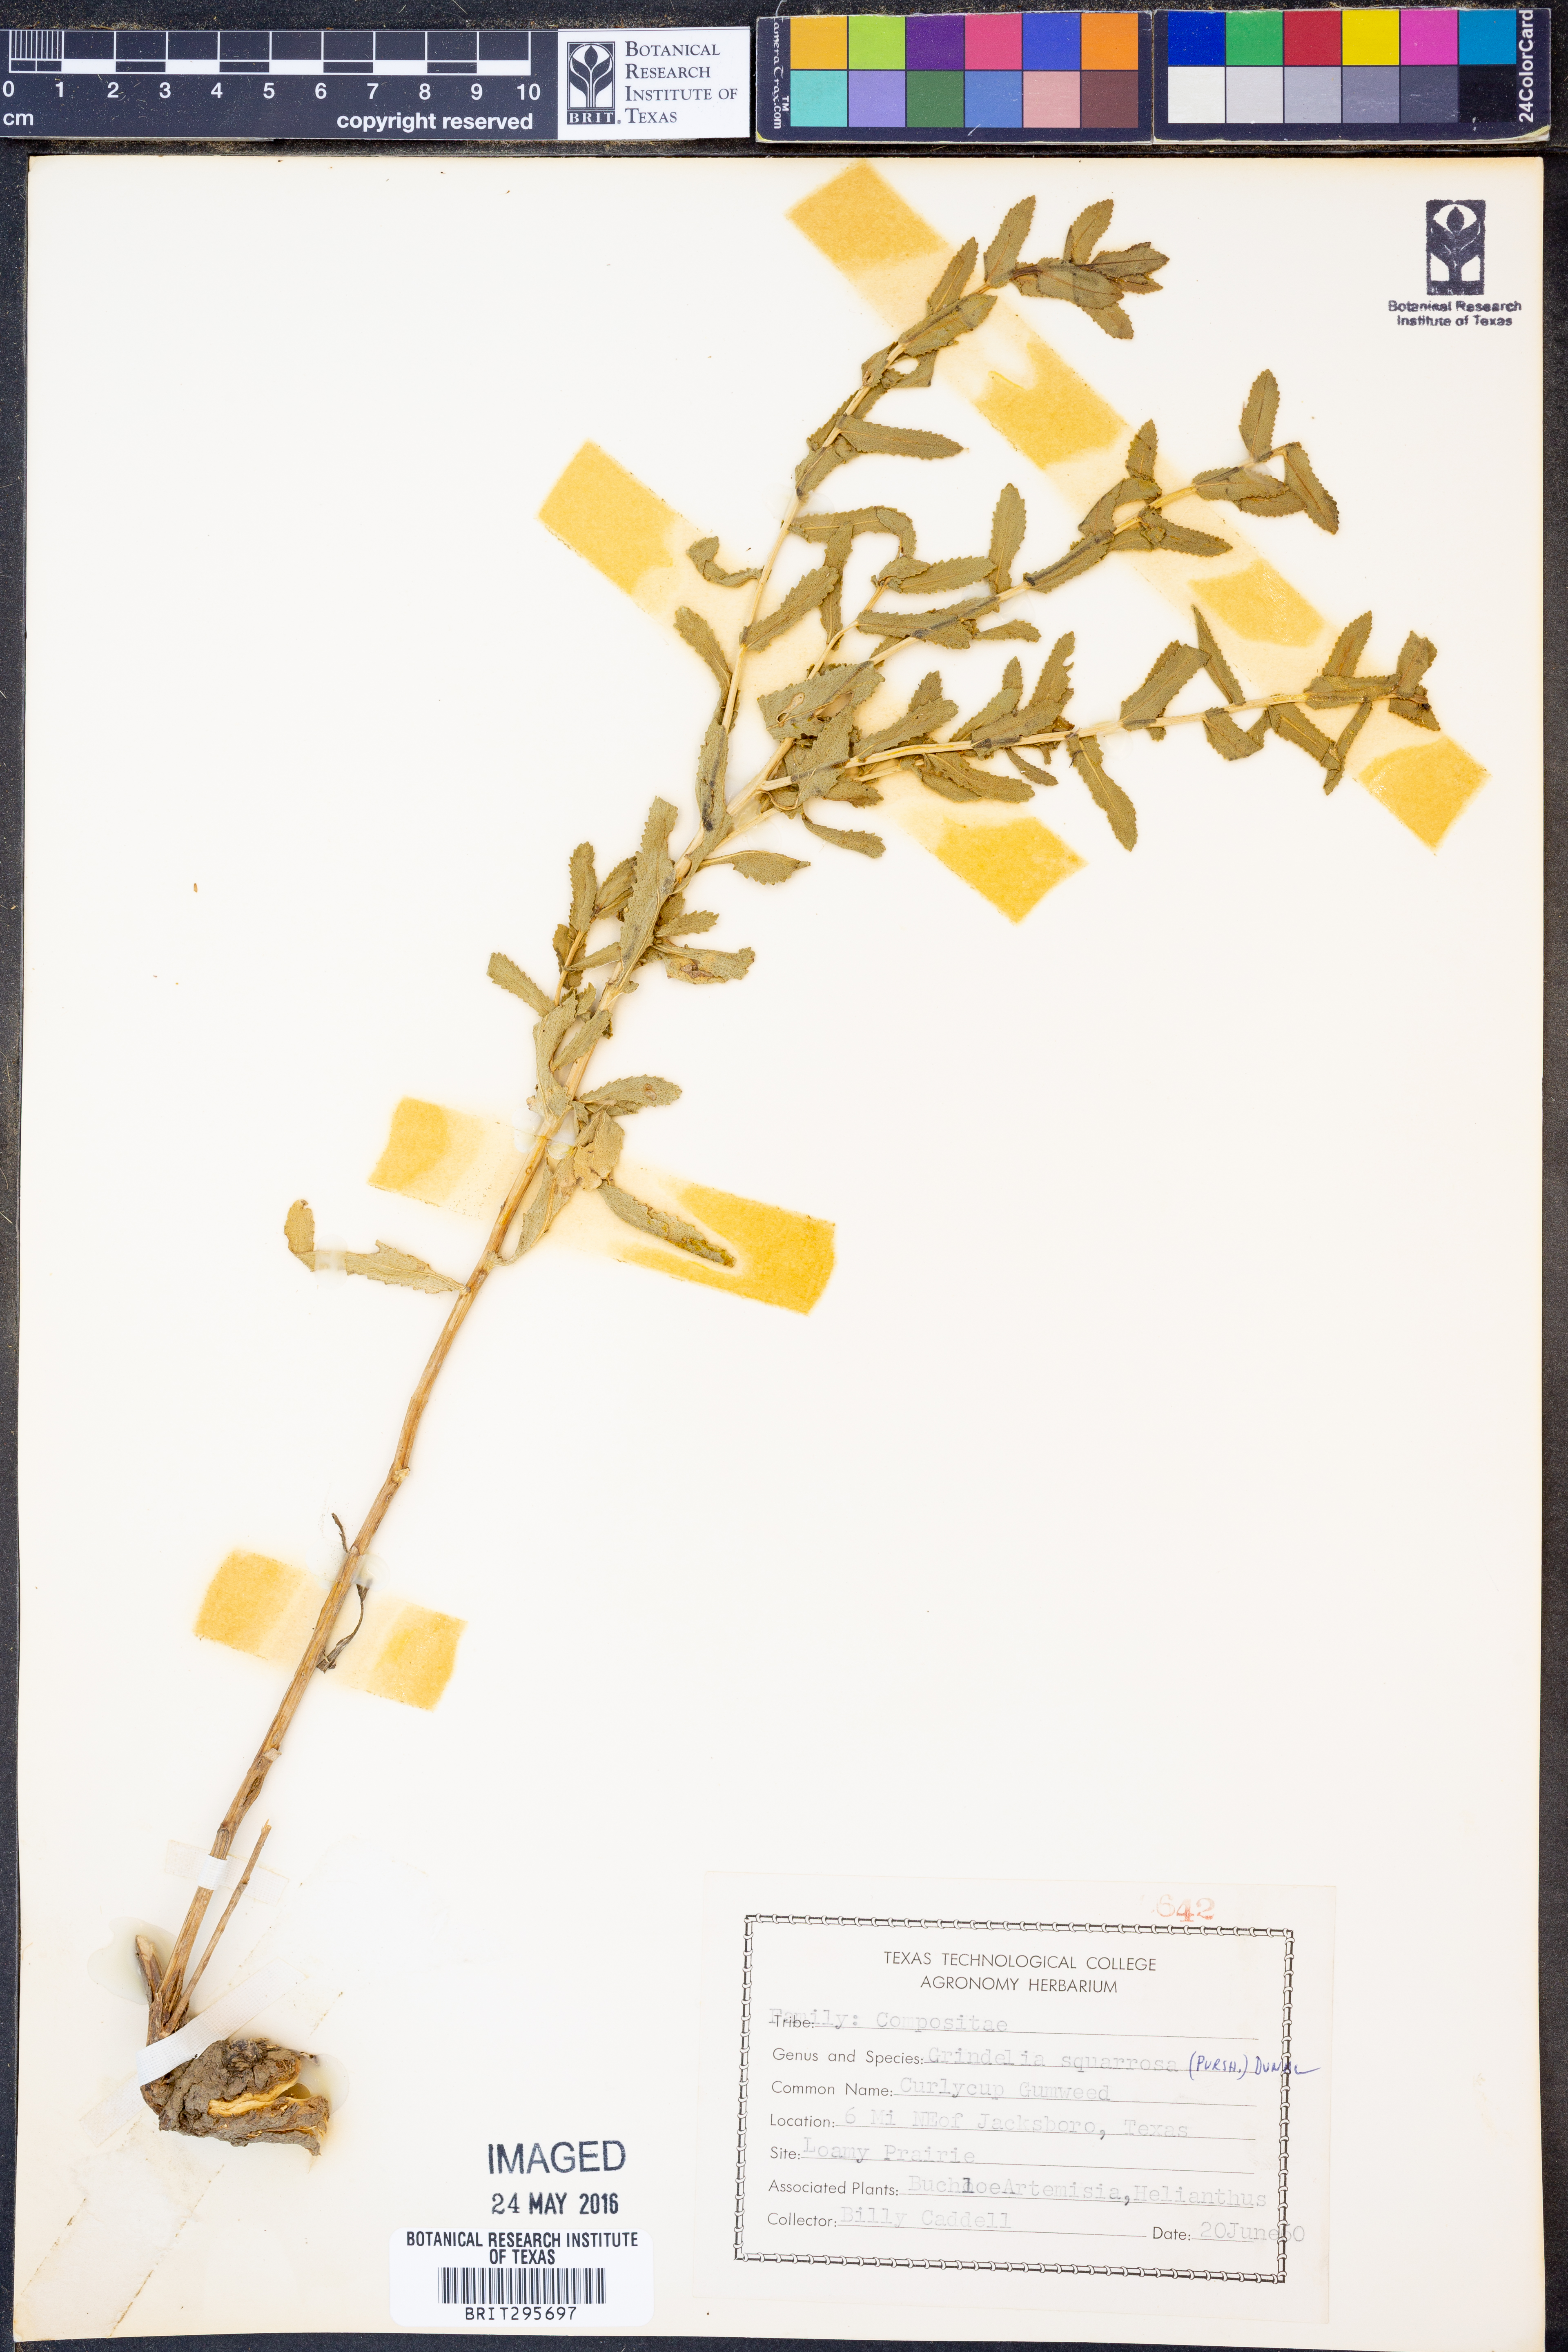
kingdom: Plantae
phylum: Tracheophyta
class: Magnoliopsida
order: Asterales
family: Asteraceae
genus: Grindelia
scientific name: Grindelia squarrosa
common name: Curly-cup gumweed
